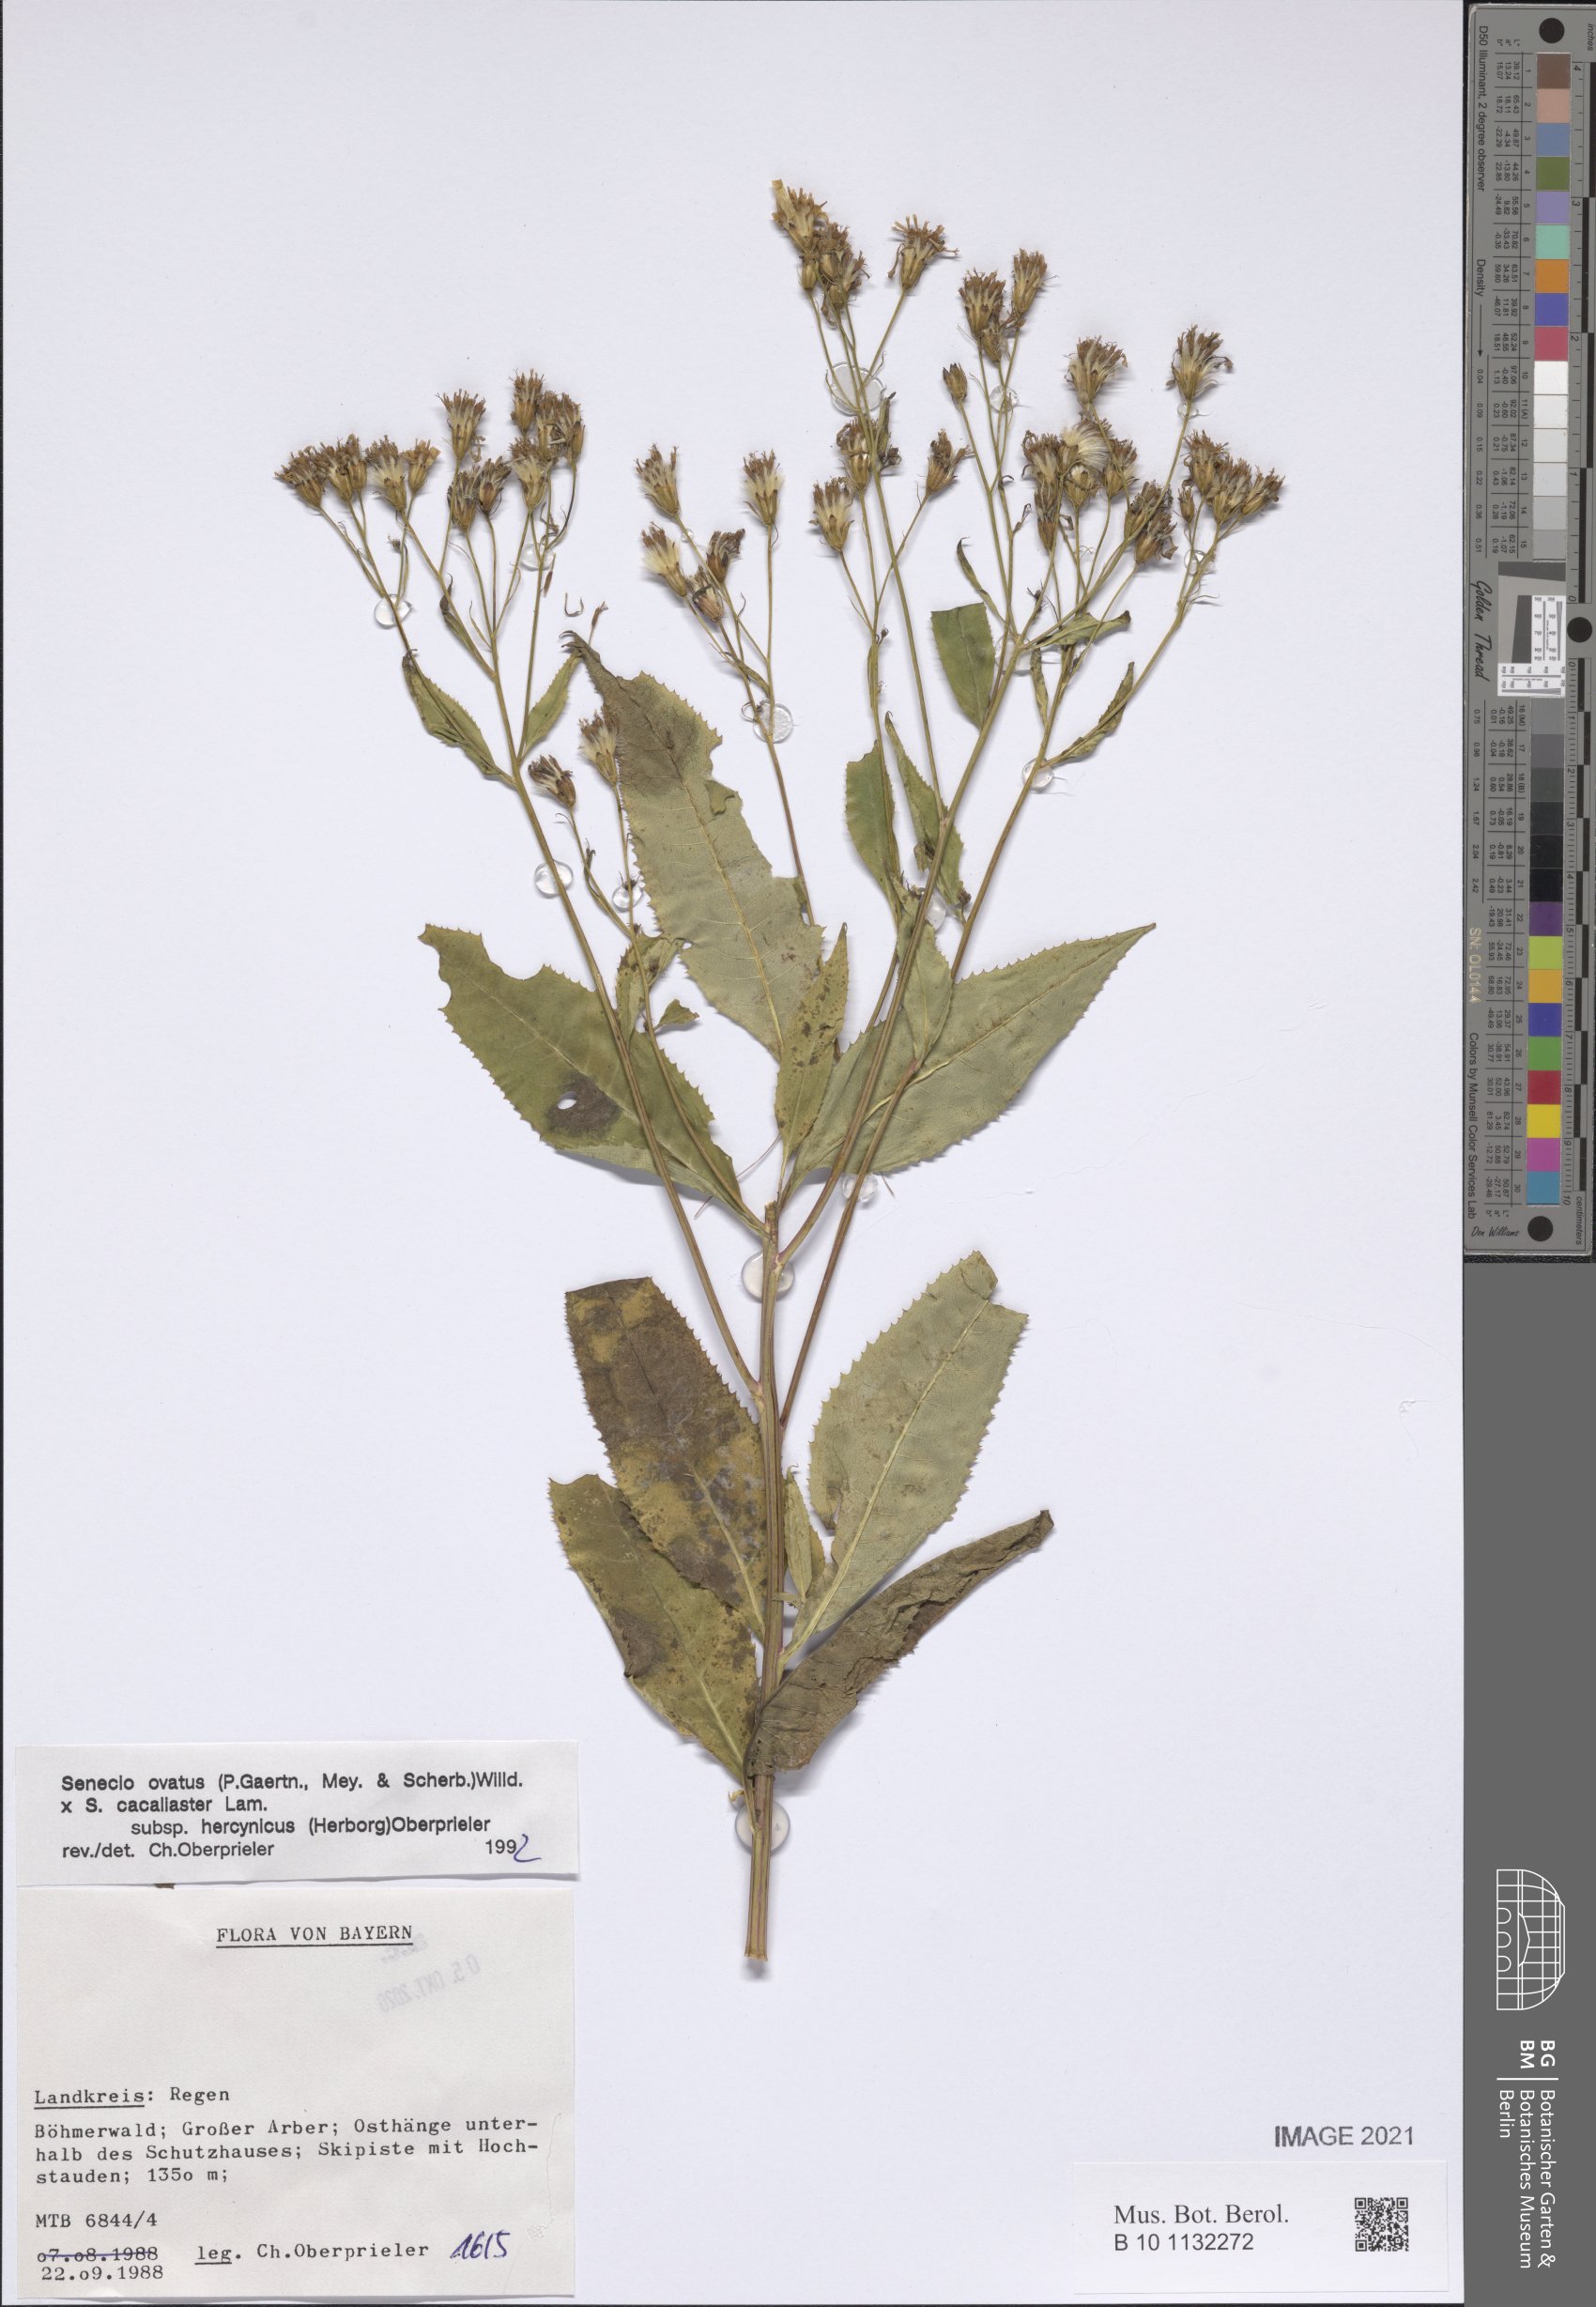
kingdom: Plantae
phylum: Tracheophyta
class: Magnoliopsida
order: Asterales
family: Asteraceae
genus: Senecio
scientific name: Senecio ovatus
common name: Wood ragwort
